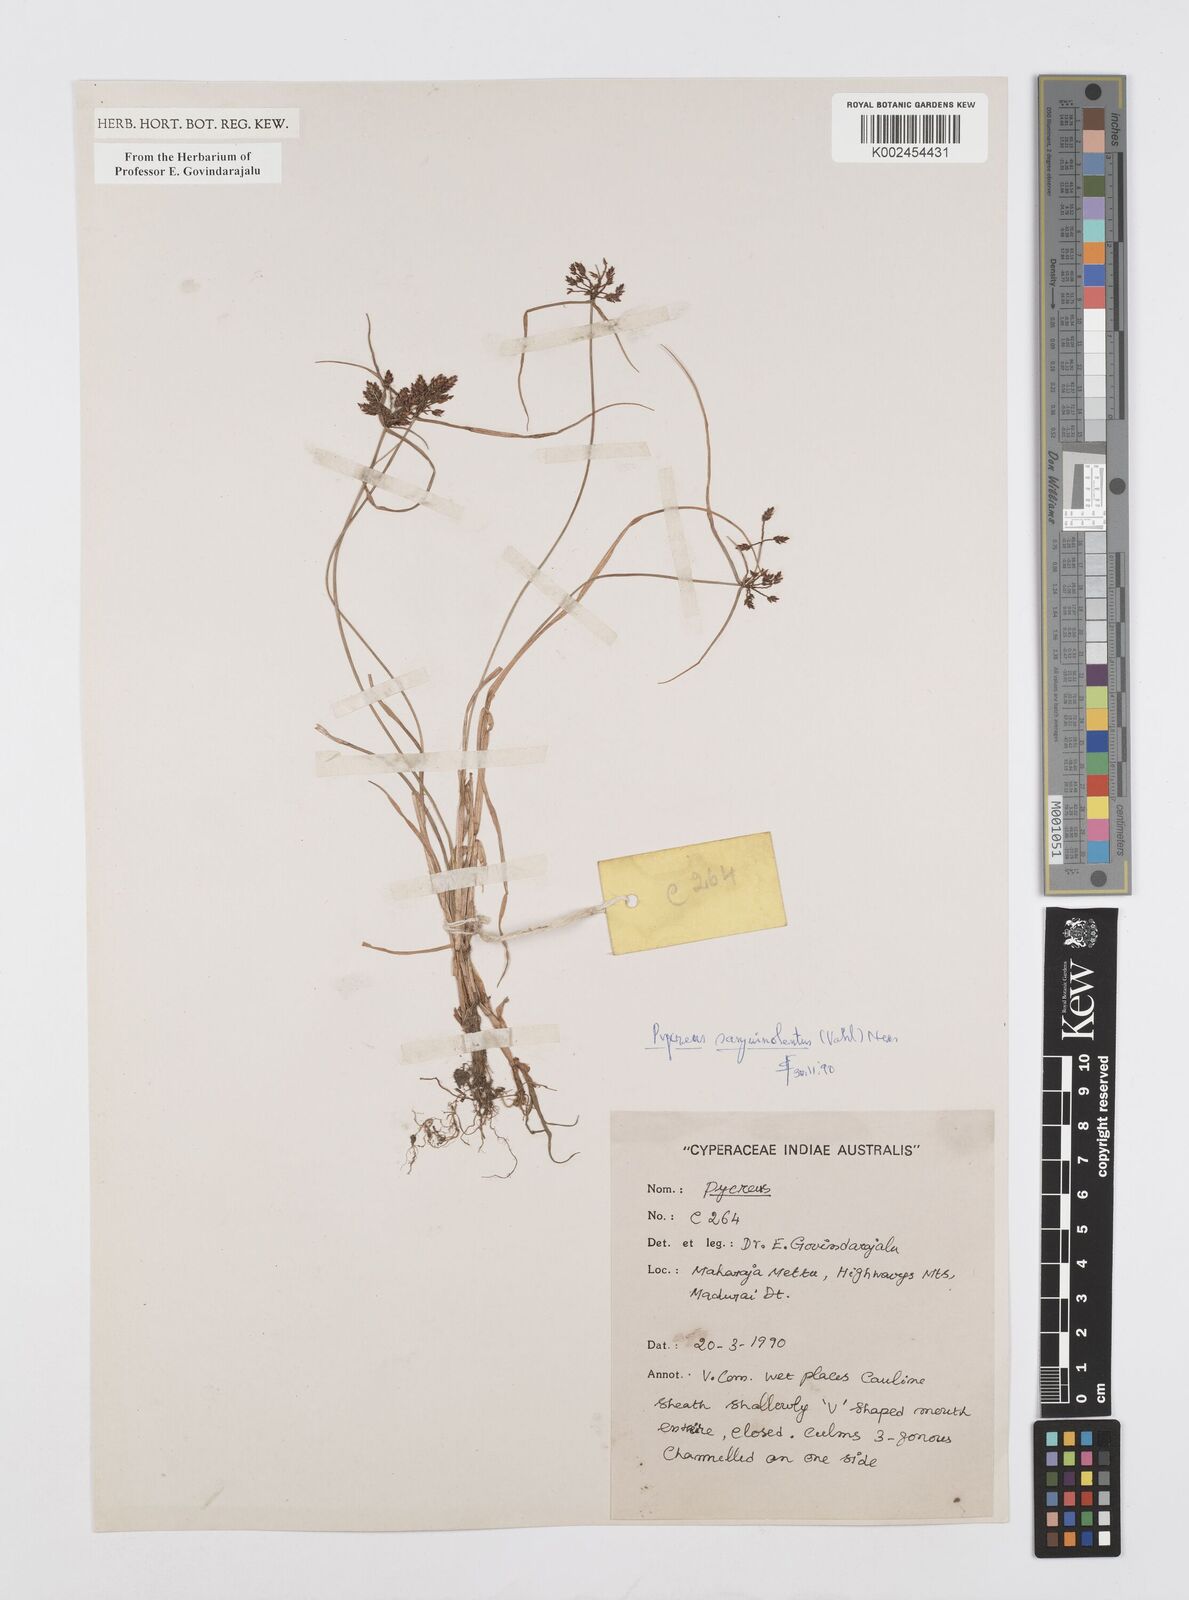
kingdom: Plantae
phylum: Tracheophyta
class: Liliopsida
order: Poales
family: Cyperaceae
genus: Cyperus
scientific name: Cyperus sanguinolentus
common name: Purpleglume flatsedge
